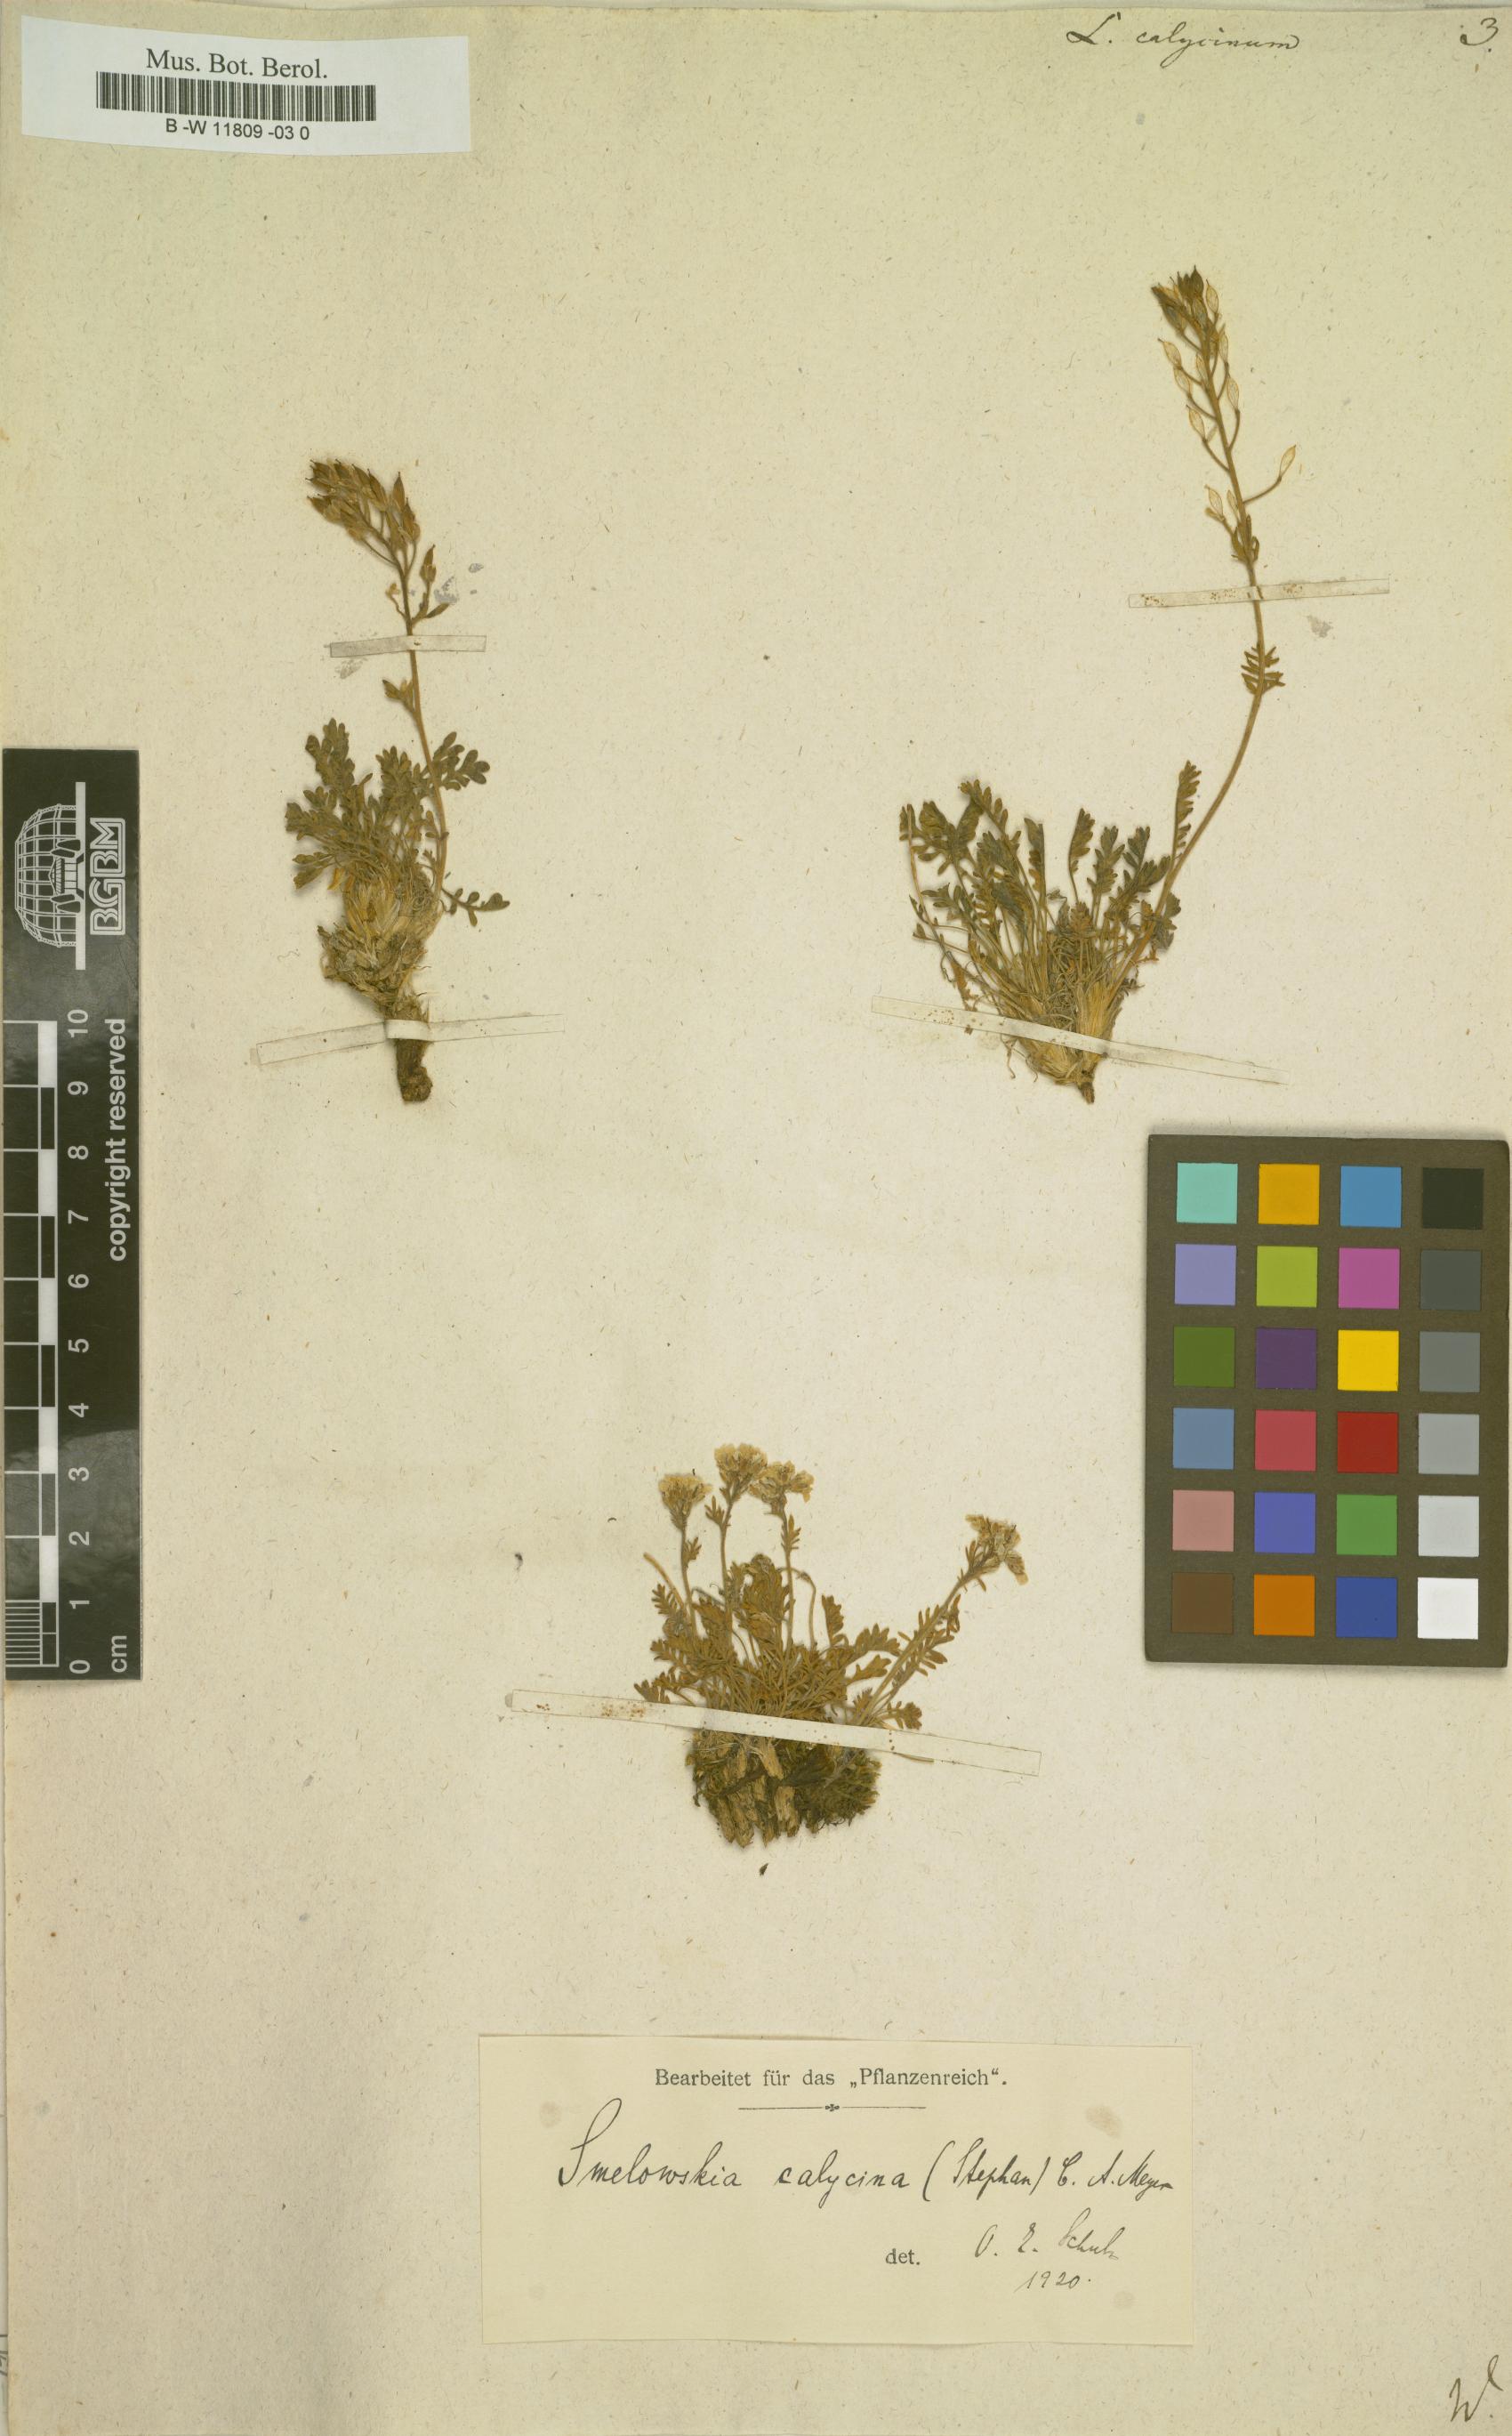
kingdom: Plantae
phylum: Tracheophyta
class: Magnoliopsida
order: Brassicales
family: Brassicaceae
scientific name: Brassicaceae
